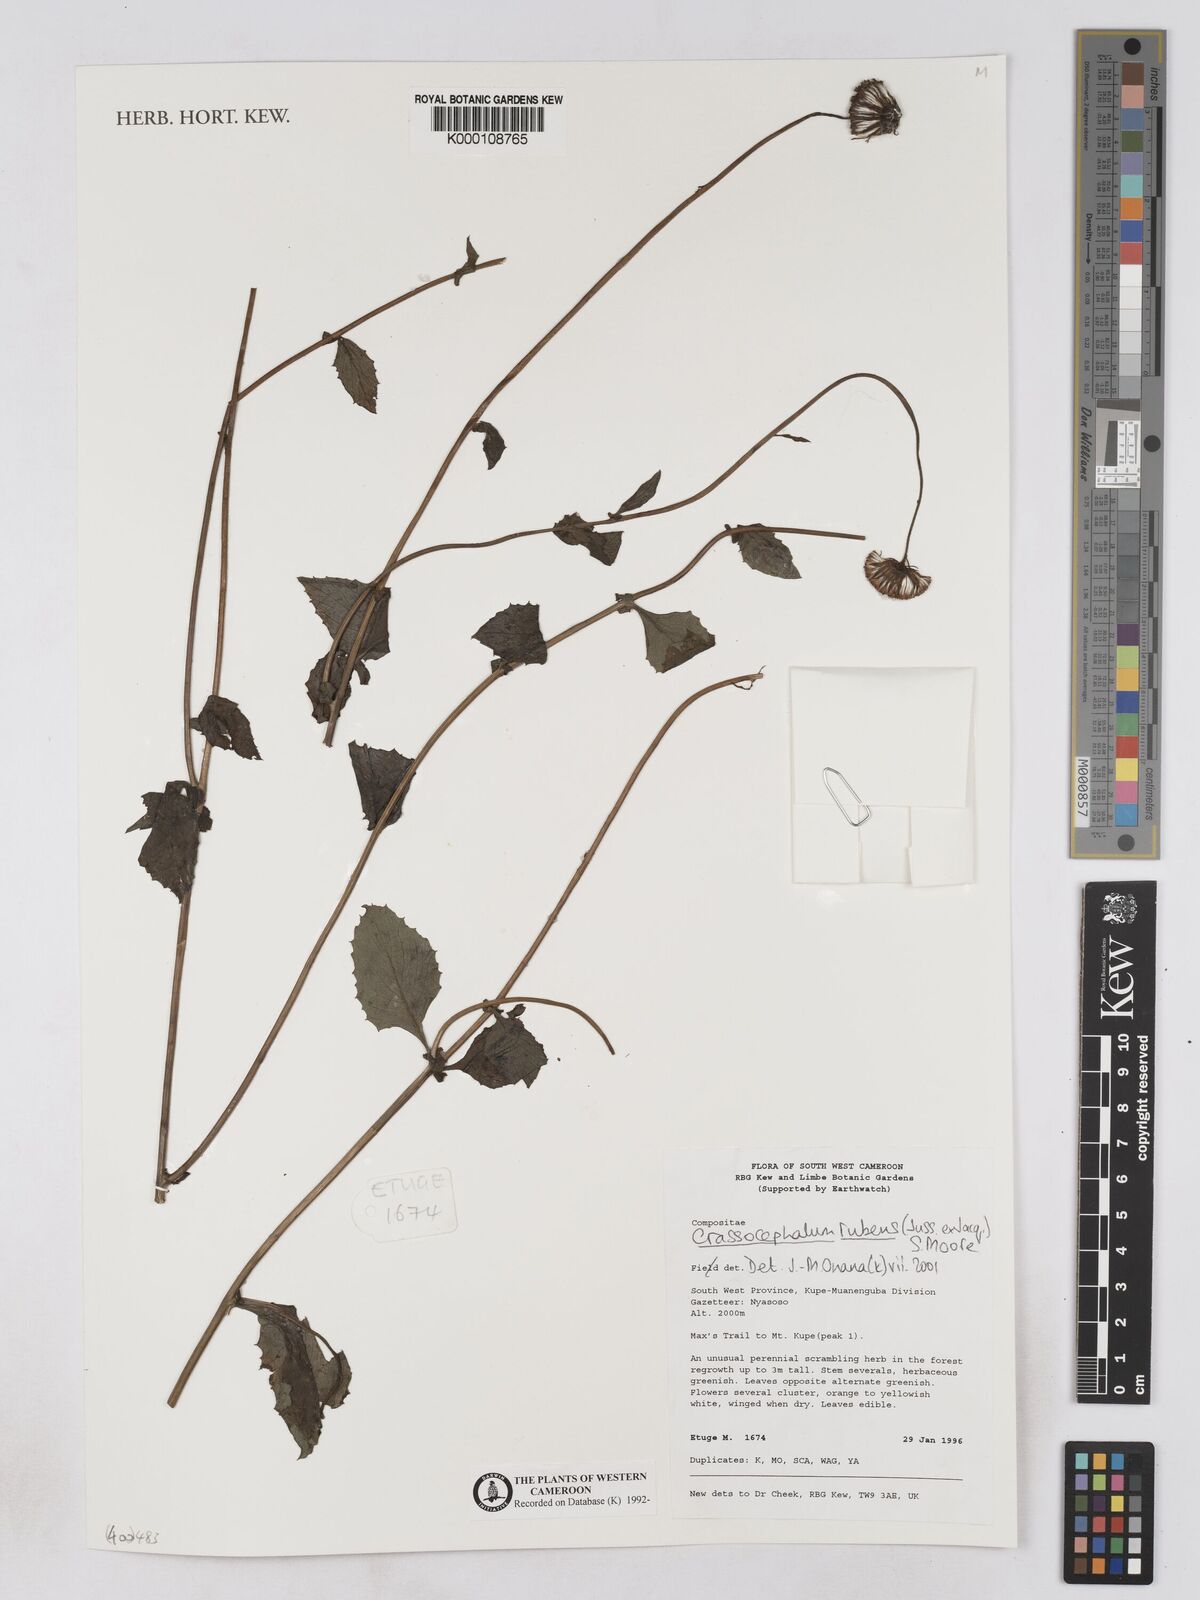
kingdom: Plantae
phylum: Tracheophyta
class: Magnoliopsida
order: Asterales
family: Asteraceae
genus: Crassocephalum
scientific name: Crassocephalum rubens
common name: Yoruban bologi
